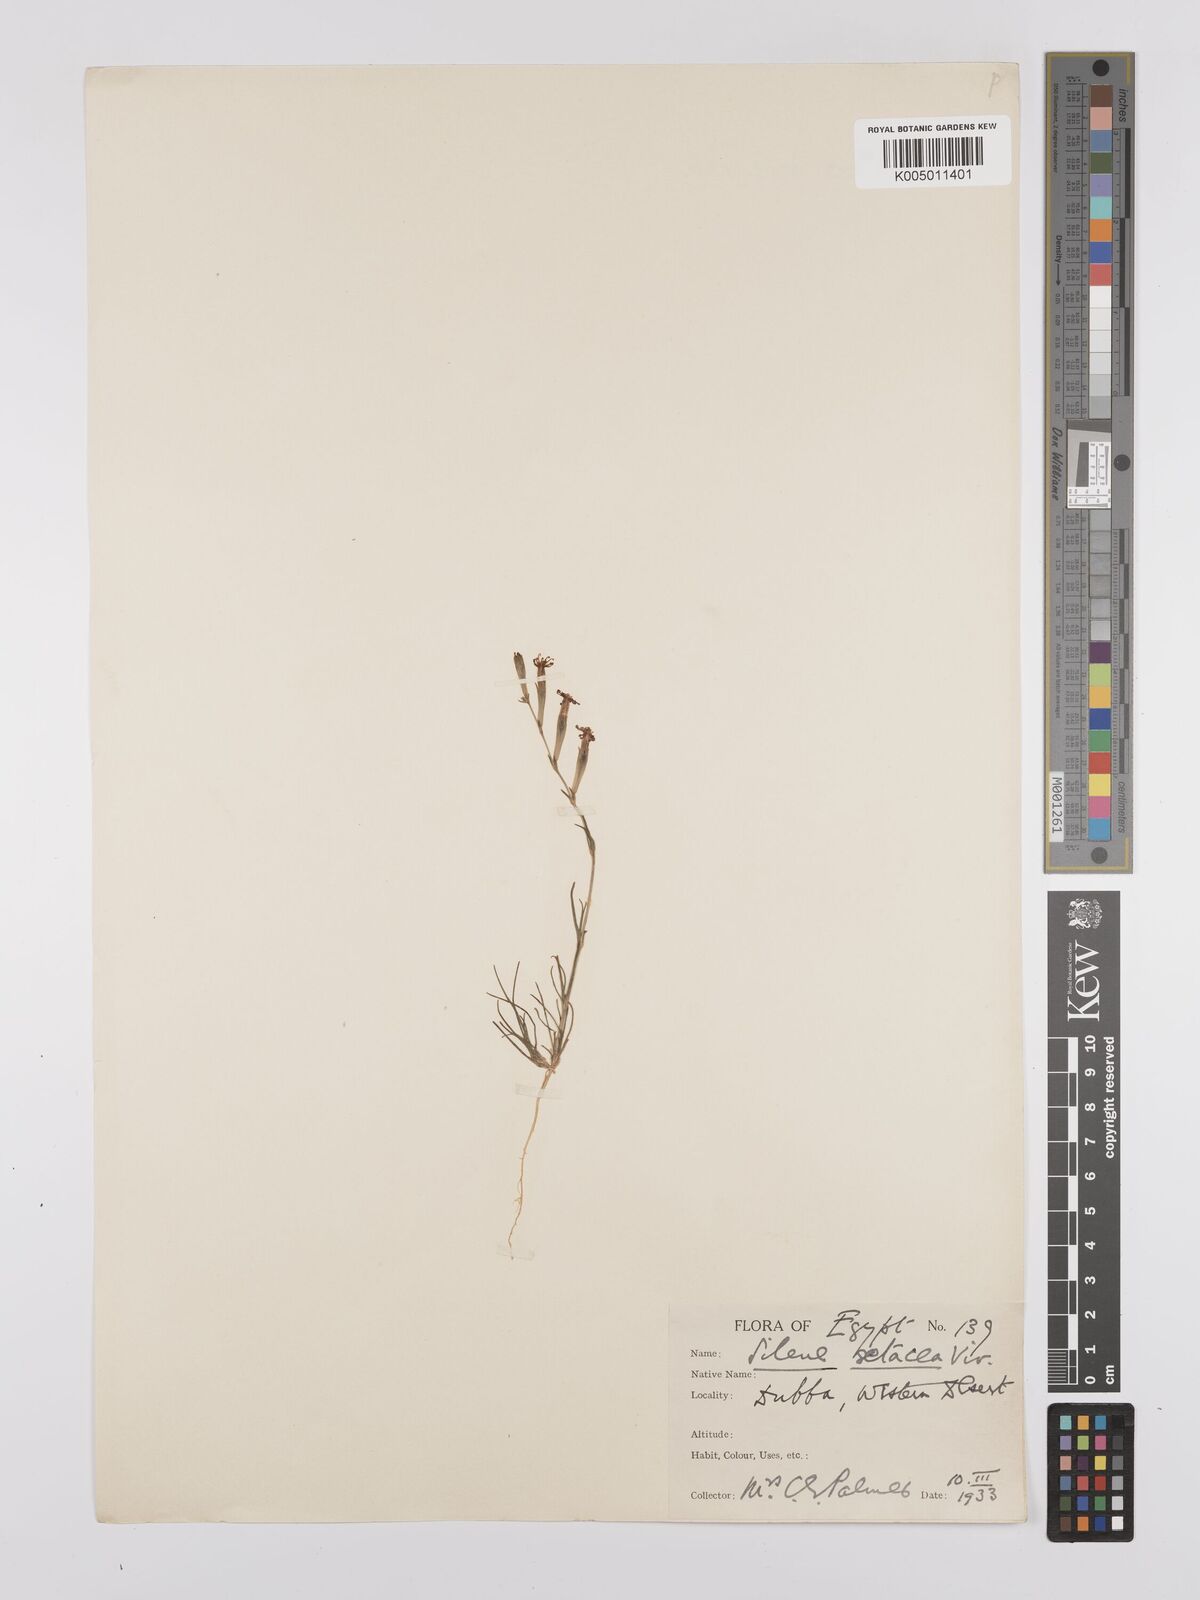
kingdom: Plantae
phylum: Tracheophyta
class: Magnoliopsida
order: Caryophyllales
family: Caryophyllaceae
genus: Silene
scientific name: Silene vivianii
